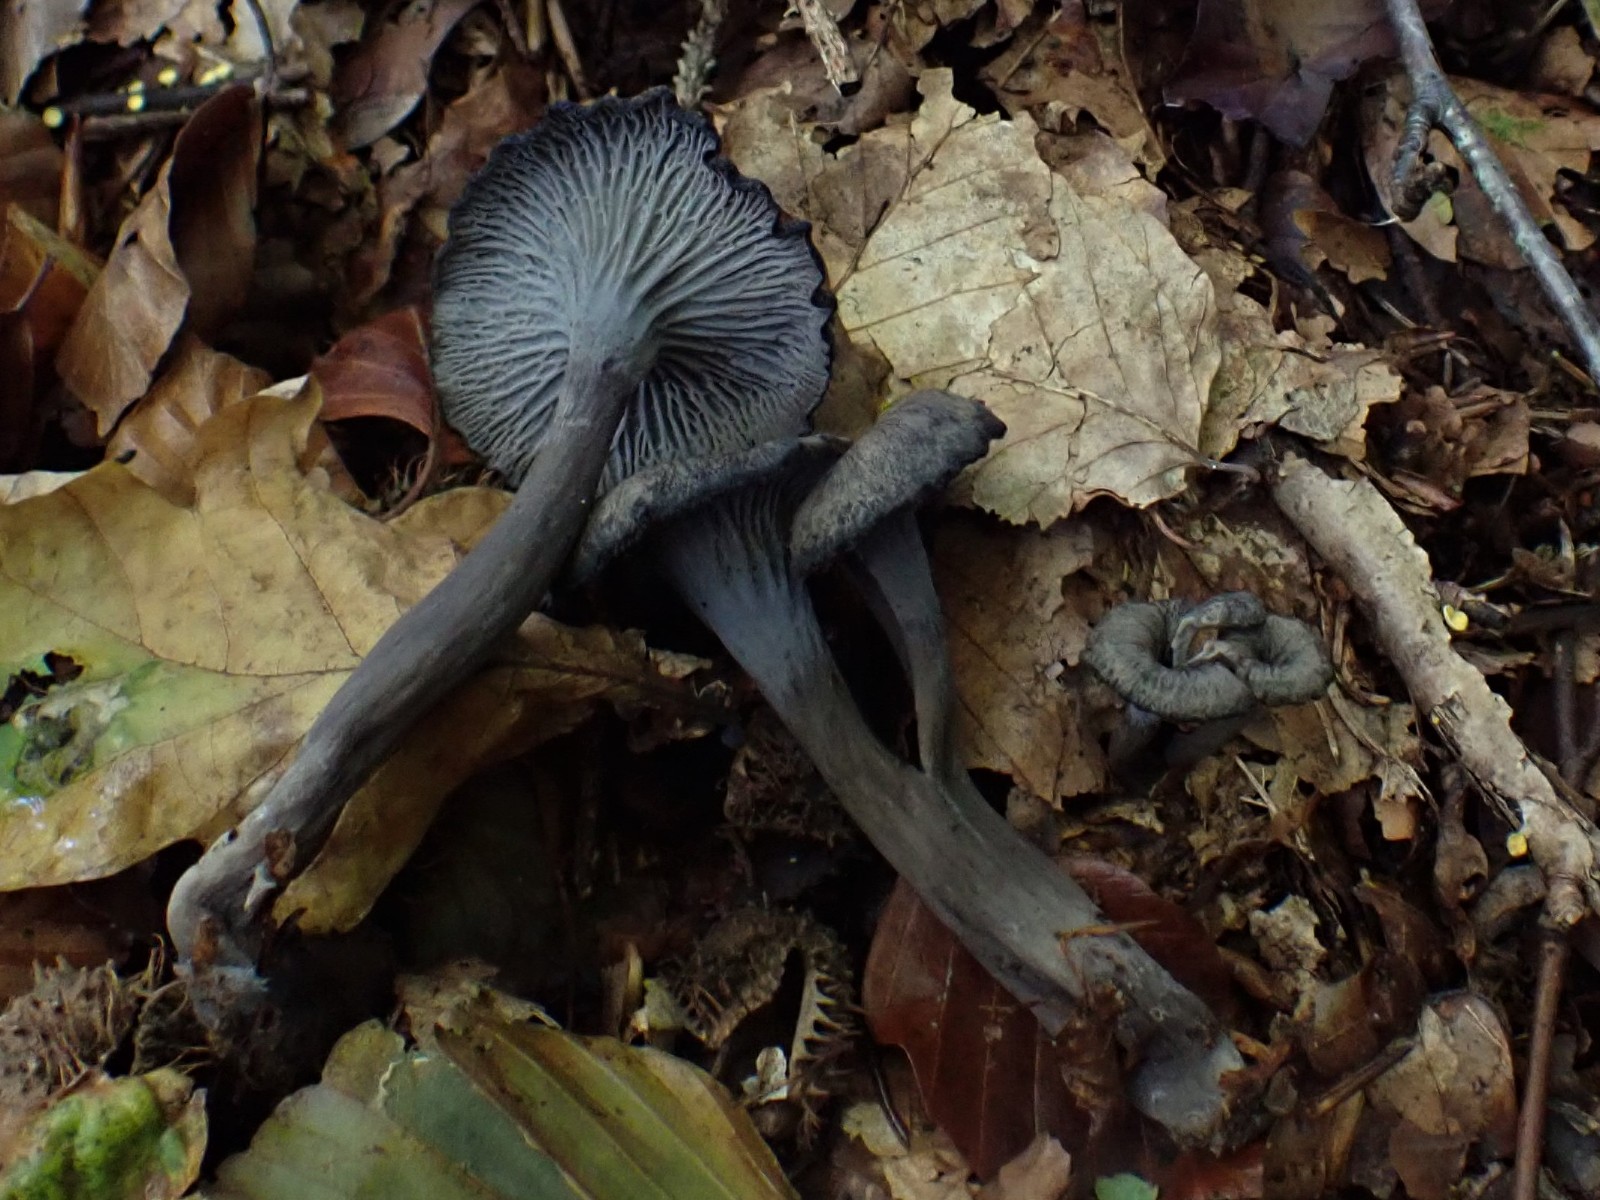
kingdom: Fungi
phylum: Basidiomycota
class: Agaricomycetes
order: Cantharellales
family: Hydnaceae
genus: Cantharellus
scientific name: Cantharellus cinereus
